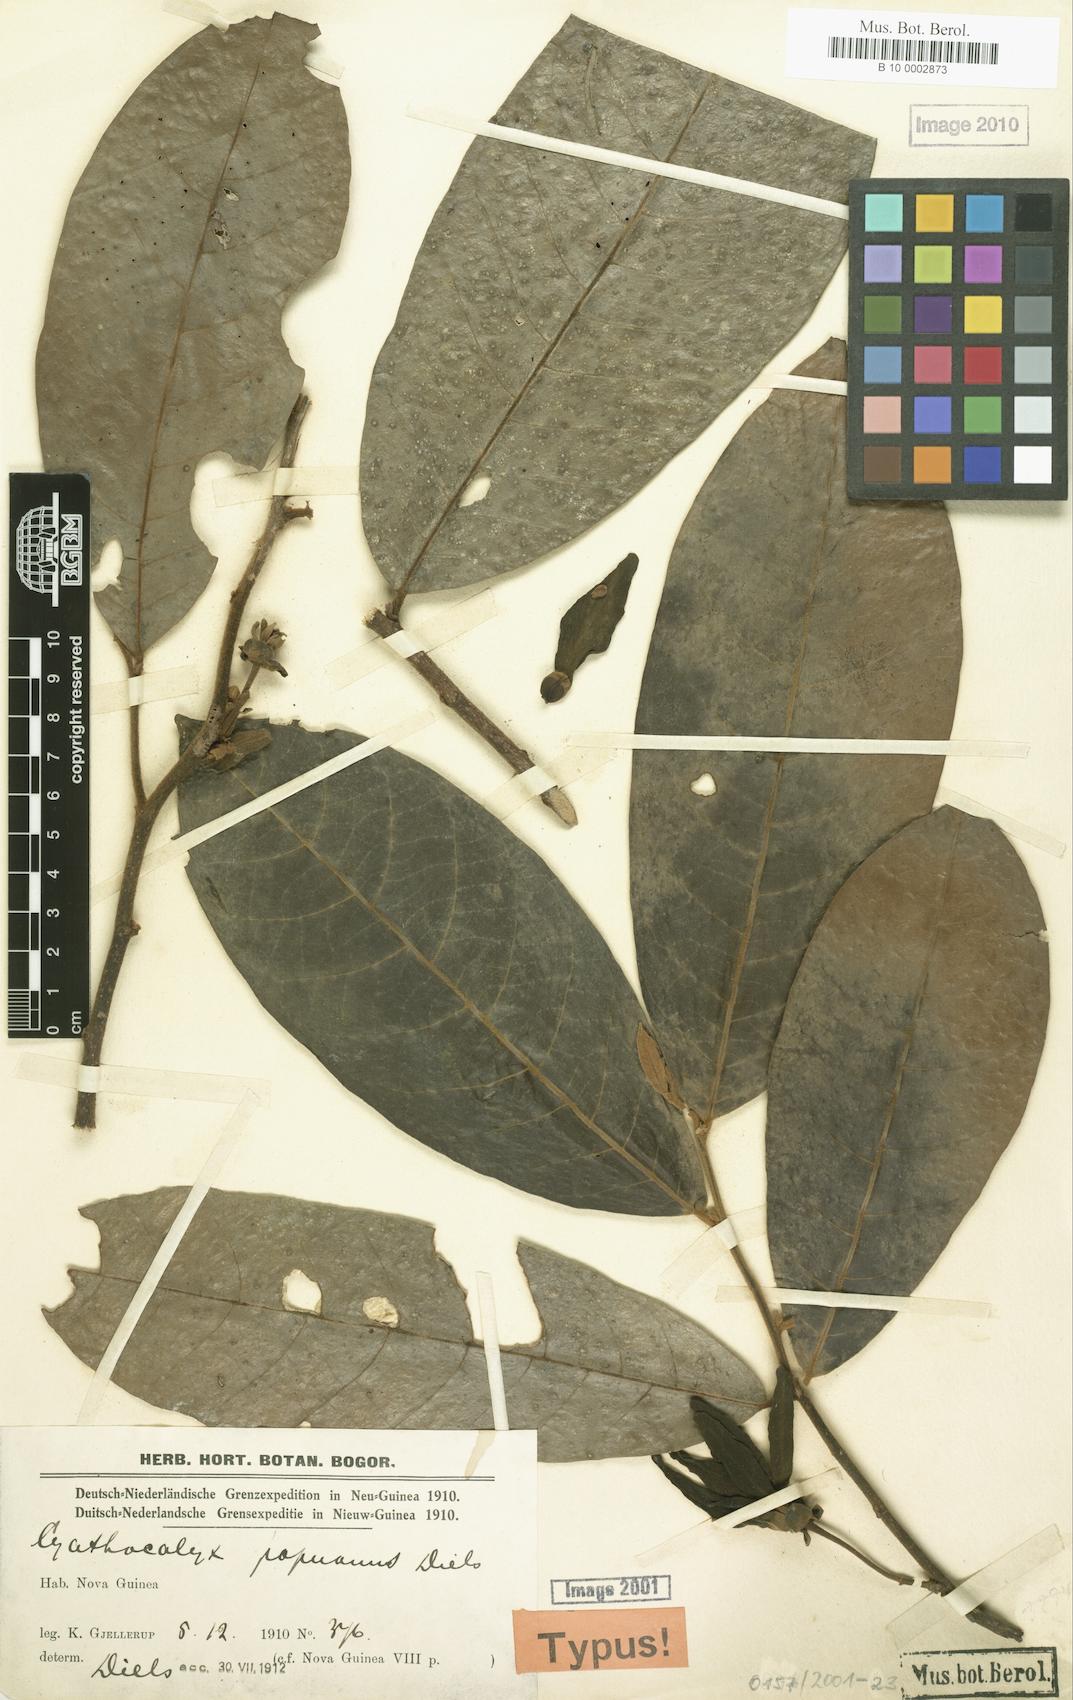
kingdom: Plantae
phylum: Tracheophyta
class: Magnoliopsida
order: Magnoliales
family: Annonaceae
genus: Drepananthus
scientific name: Drepananthus cauliflorus
